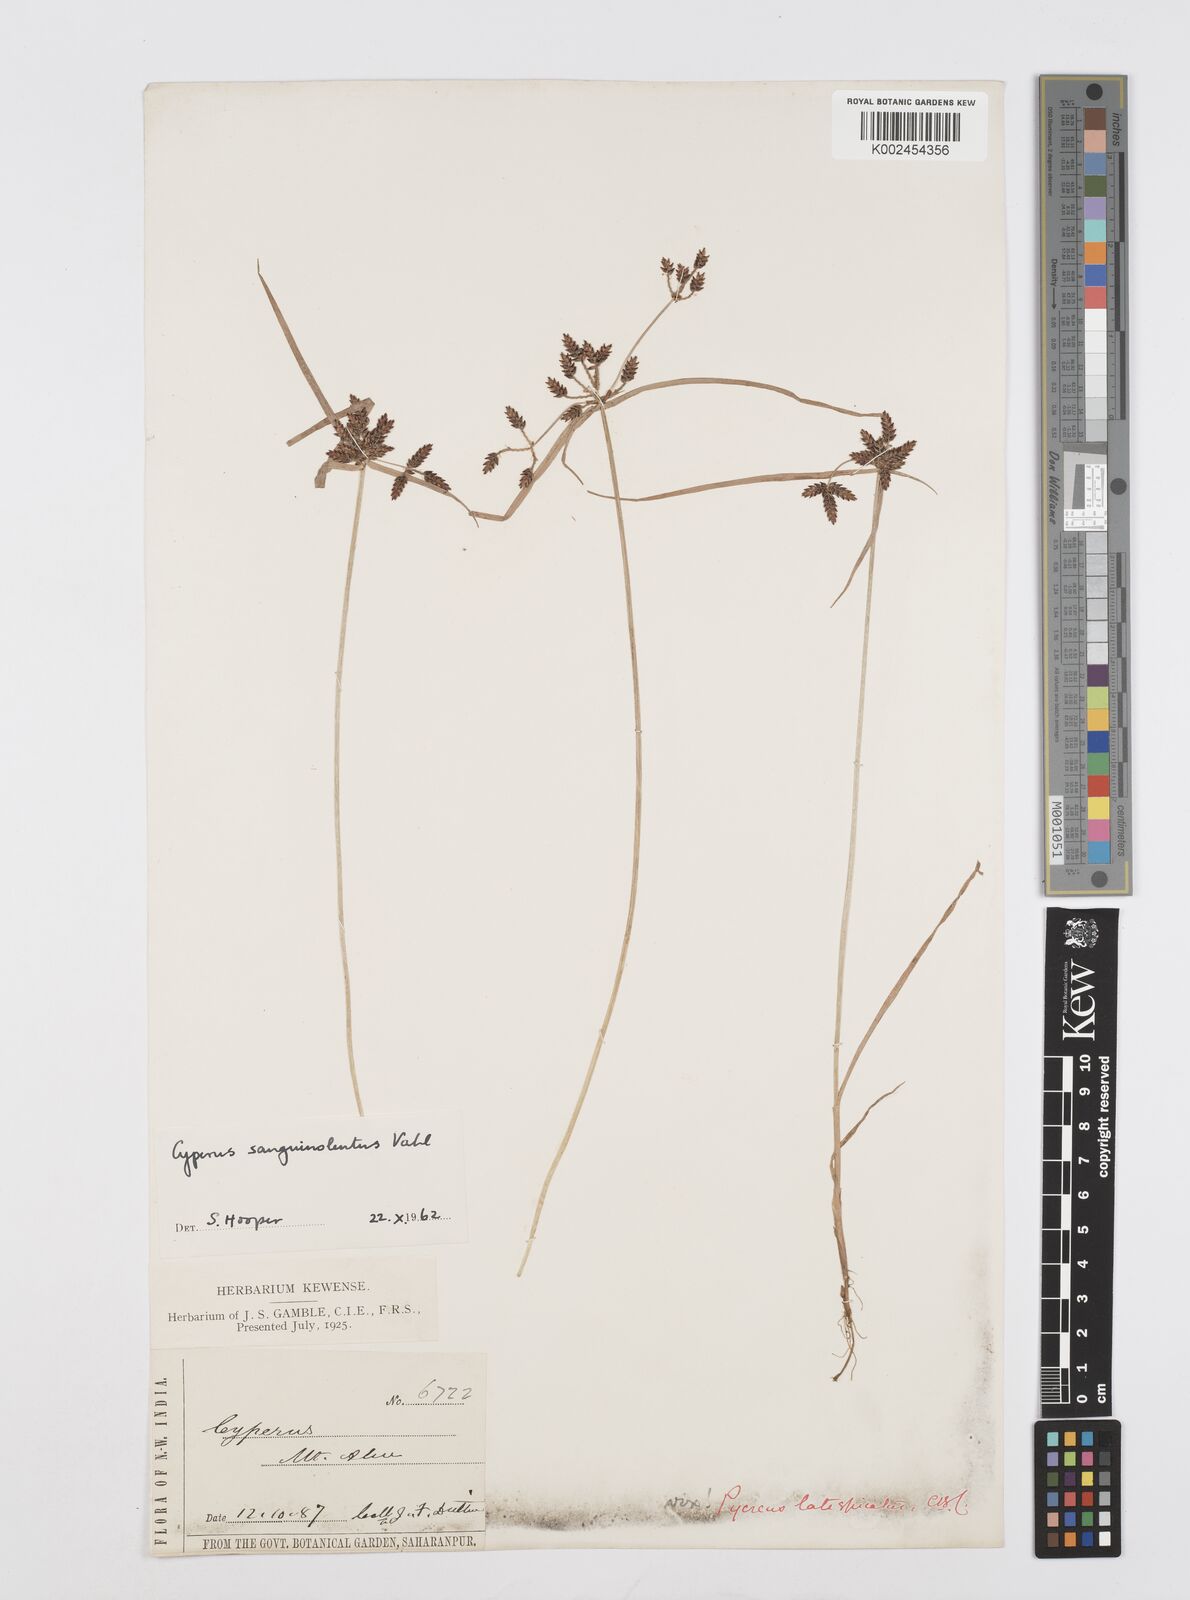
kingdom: Plantae
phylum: Tracheophyta
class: Liliopsida
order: Poales
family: Cyperaceae
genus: Cyperus
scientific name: Cyperus sanguinolentus
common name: Purpleglume flatsedge
